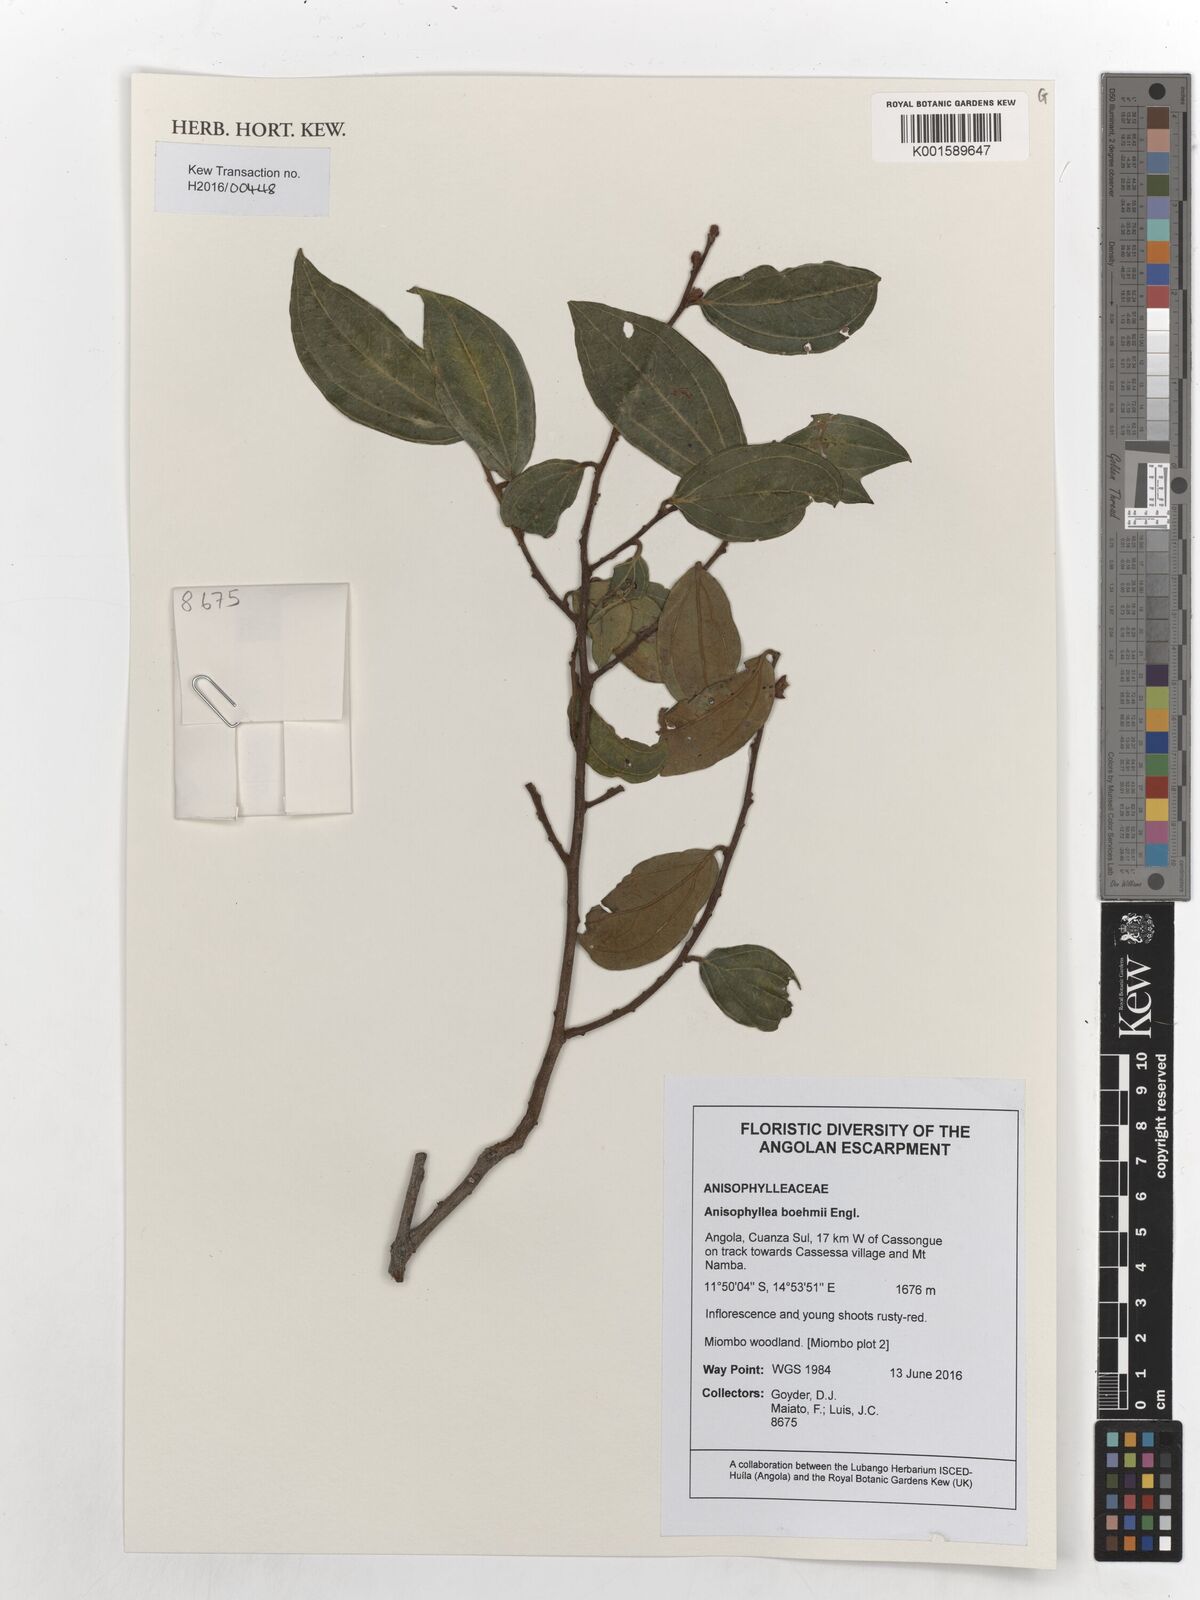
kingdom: Plantae
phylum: Tracheophyta
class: Magnoliopsida
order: Cucurbitales
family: Anisophylleaceae
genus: Anisophyllea
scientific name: Anisophyllea boehmii
